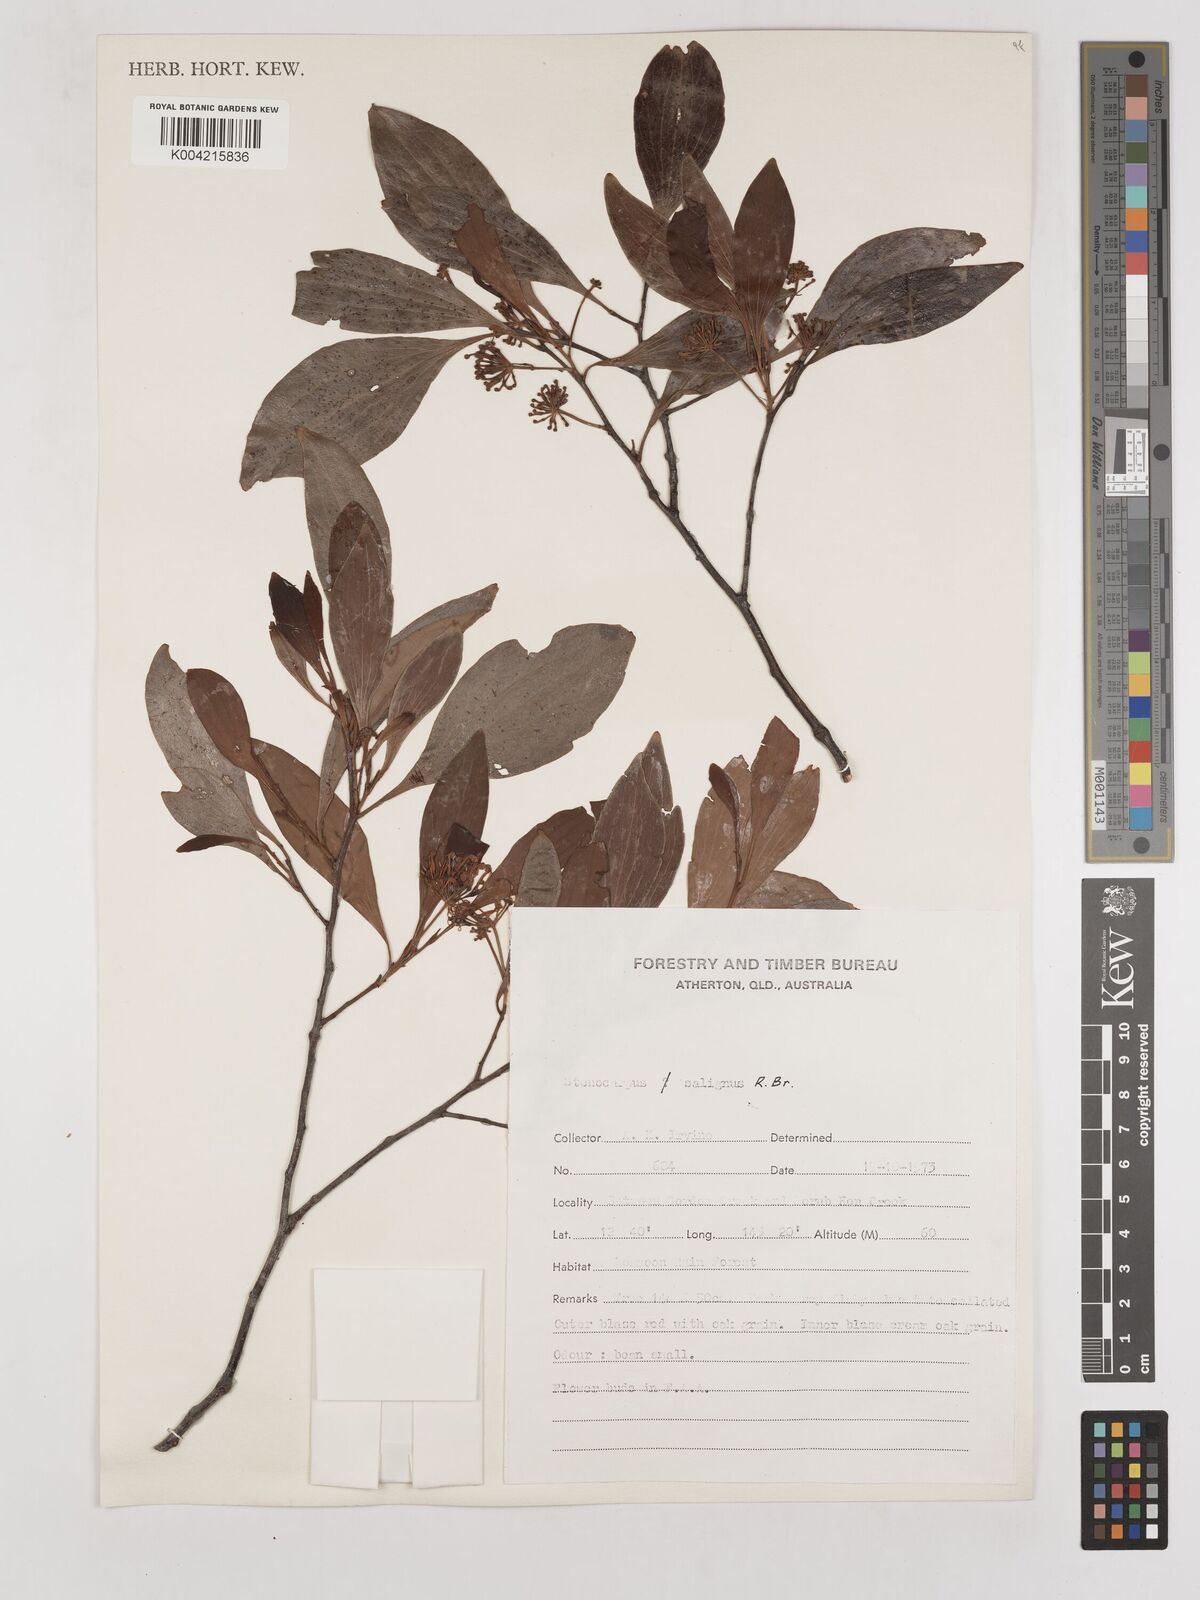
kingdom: Plantae
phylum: Tracheophyta
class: Magnoliopsida
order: Proteales
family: Proteaceae
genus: Stenocarpus
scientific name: Stenocarpus salignus
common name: Red silky-oak
